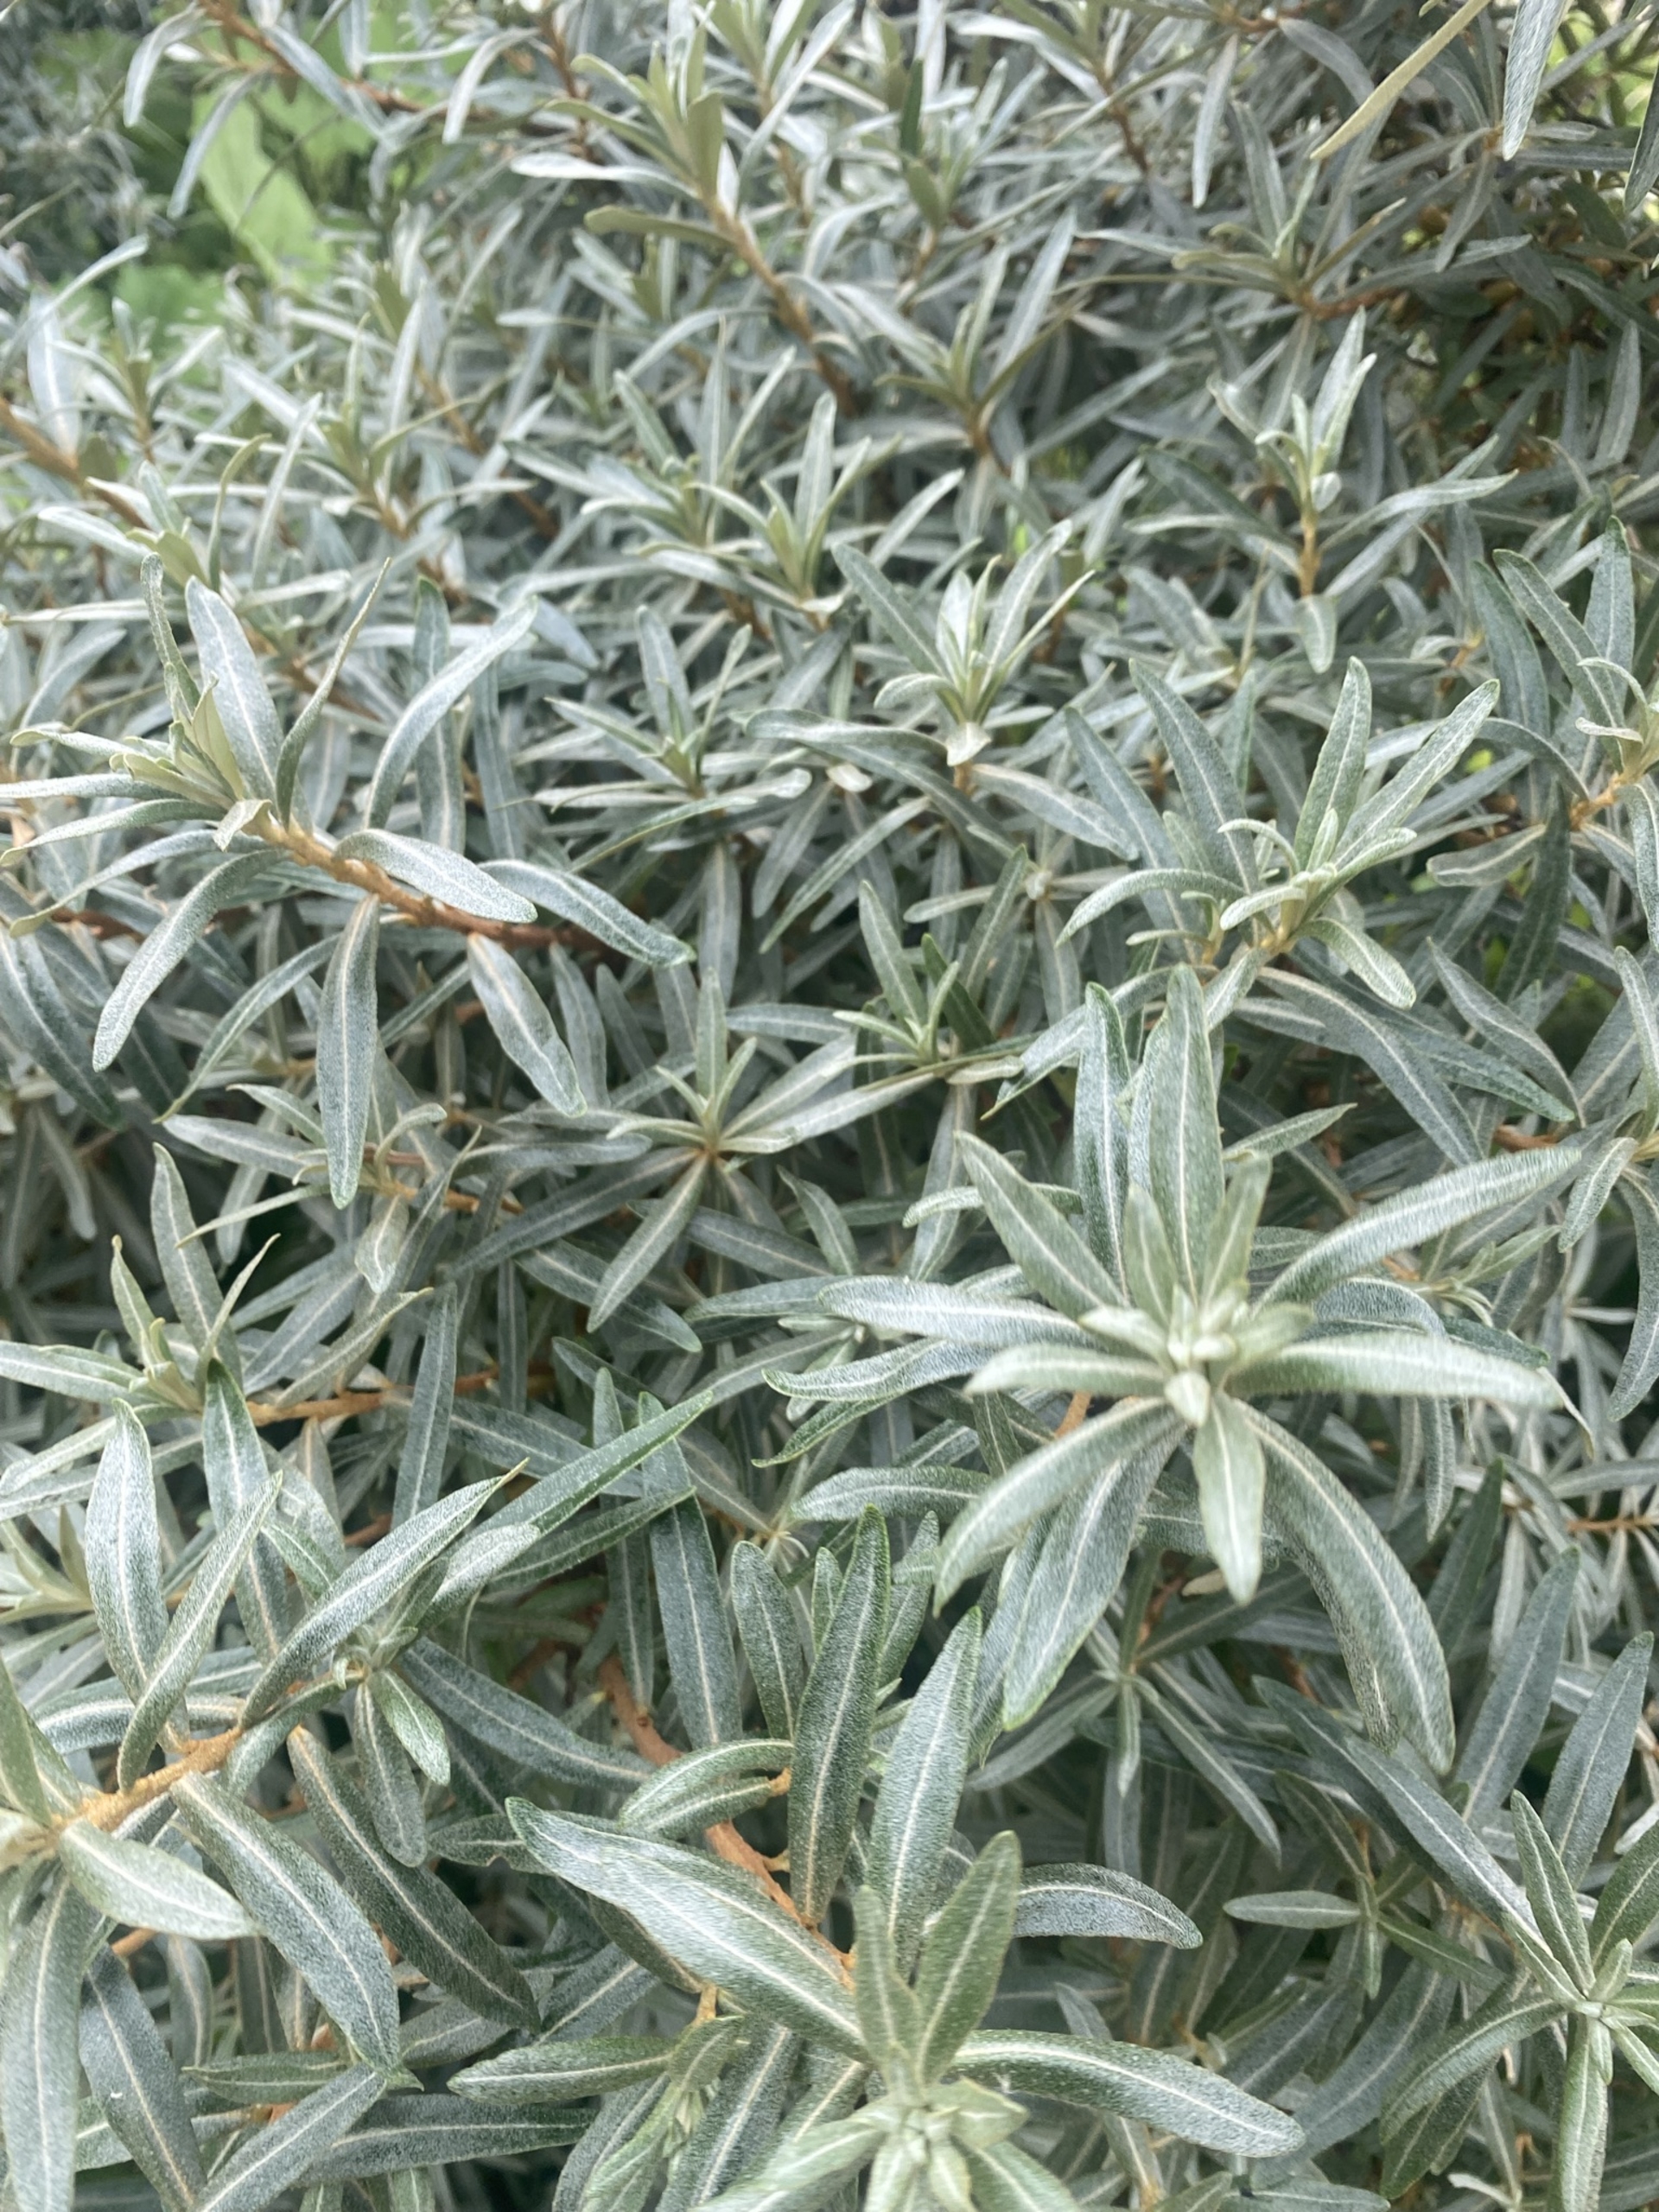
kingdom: Plantae
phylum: Tracheophyta
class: Magnoliopsida
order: Rosales
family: Elaeagnaceae
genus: Hippophae
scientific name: Hippophae rhamnoides
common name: Havtorn
